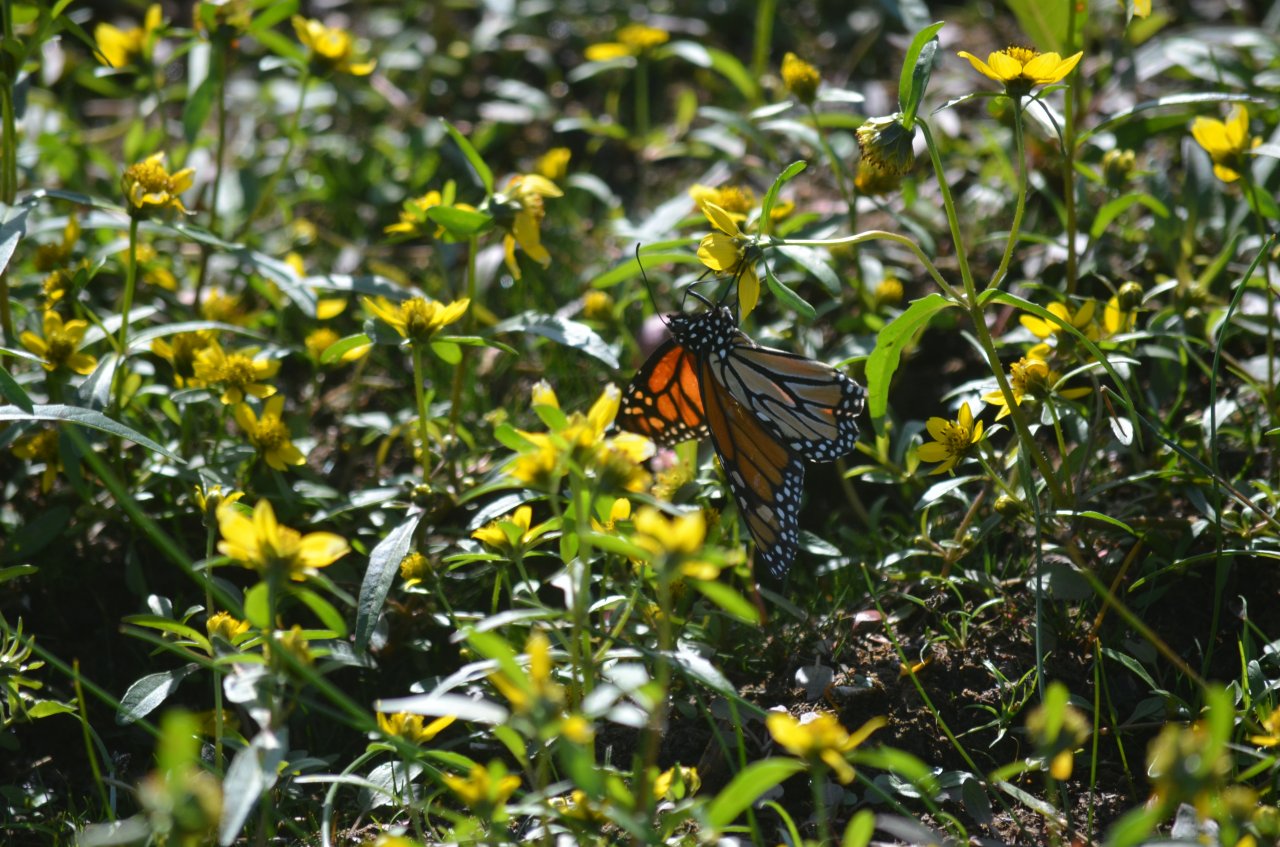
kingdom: Animalia
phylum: Arthropoda
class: Insecta
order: Lepidoptera
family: Nymphalidae
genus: Danaus
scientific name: Danaus plexippus
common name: Monarch
